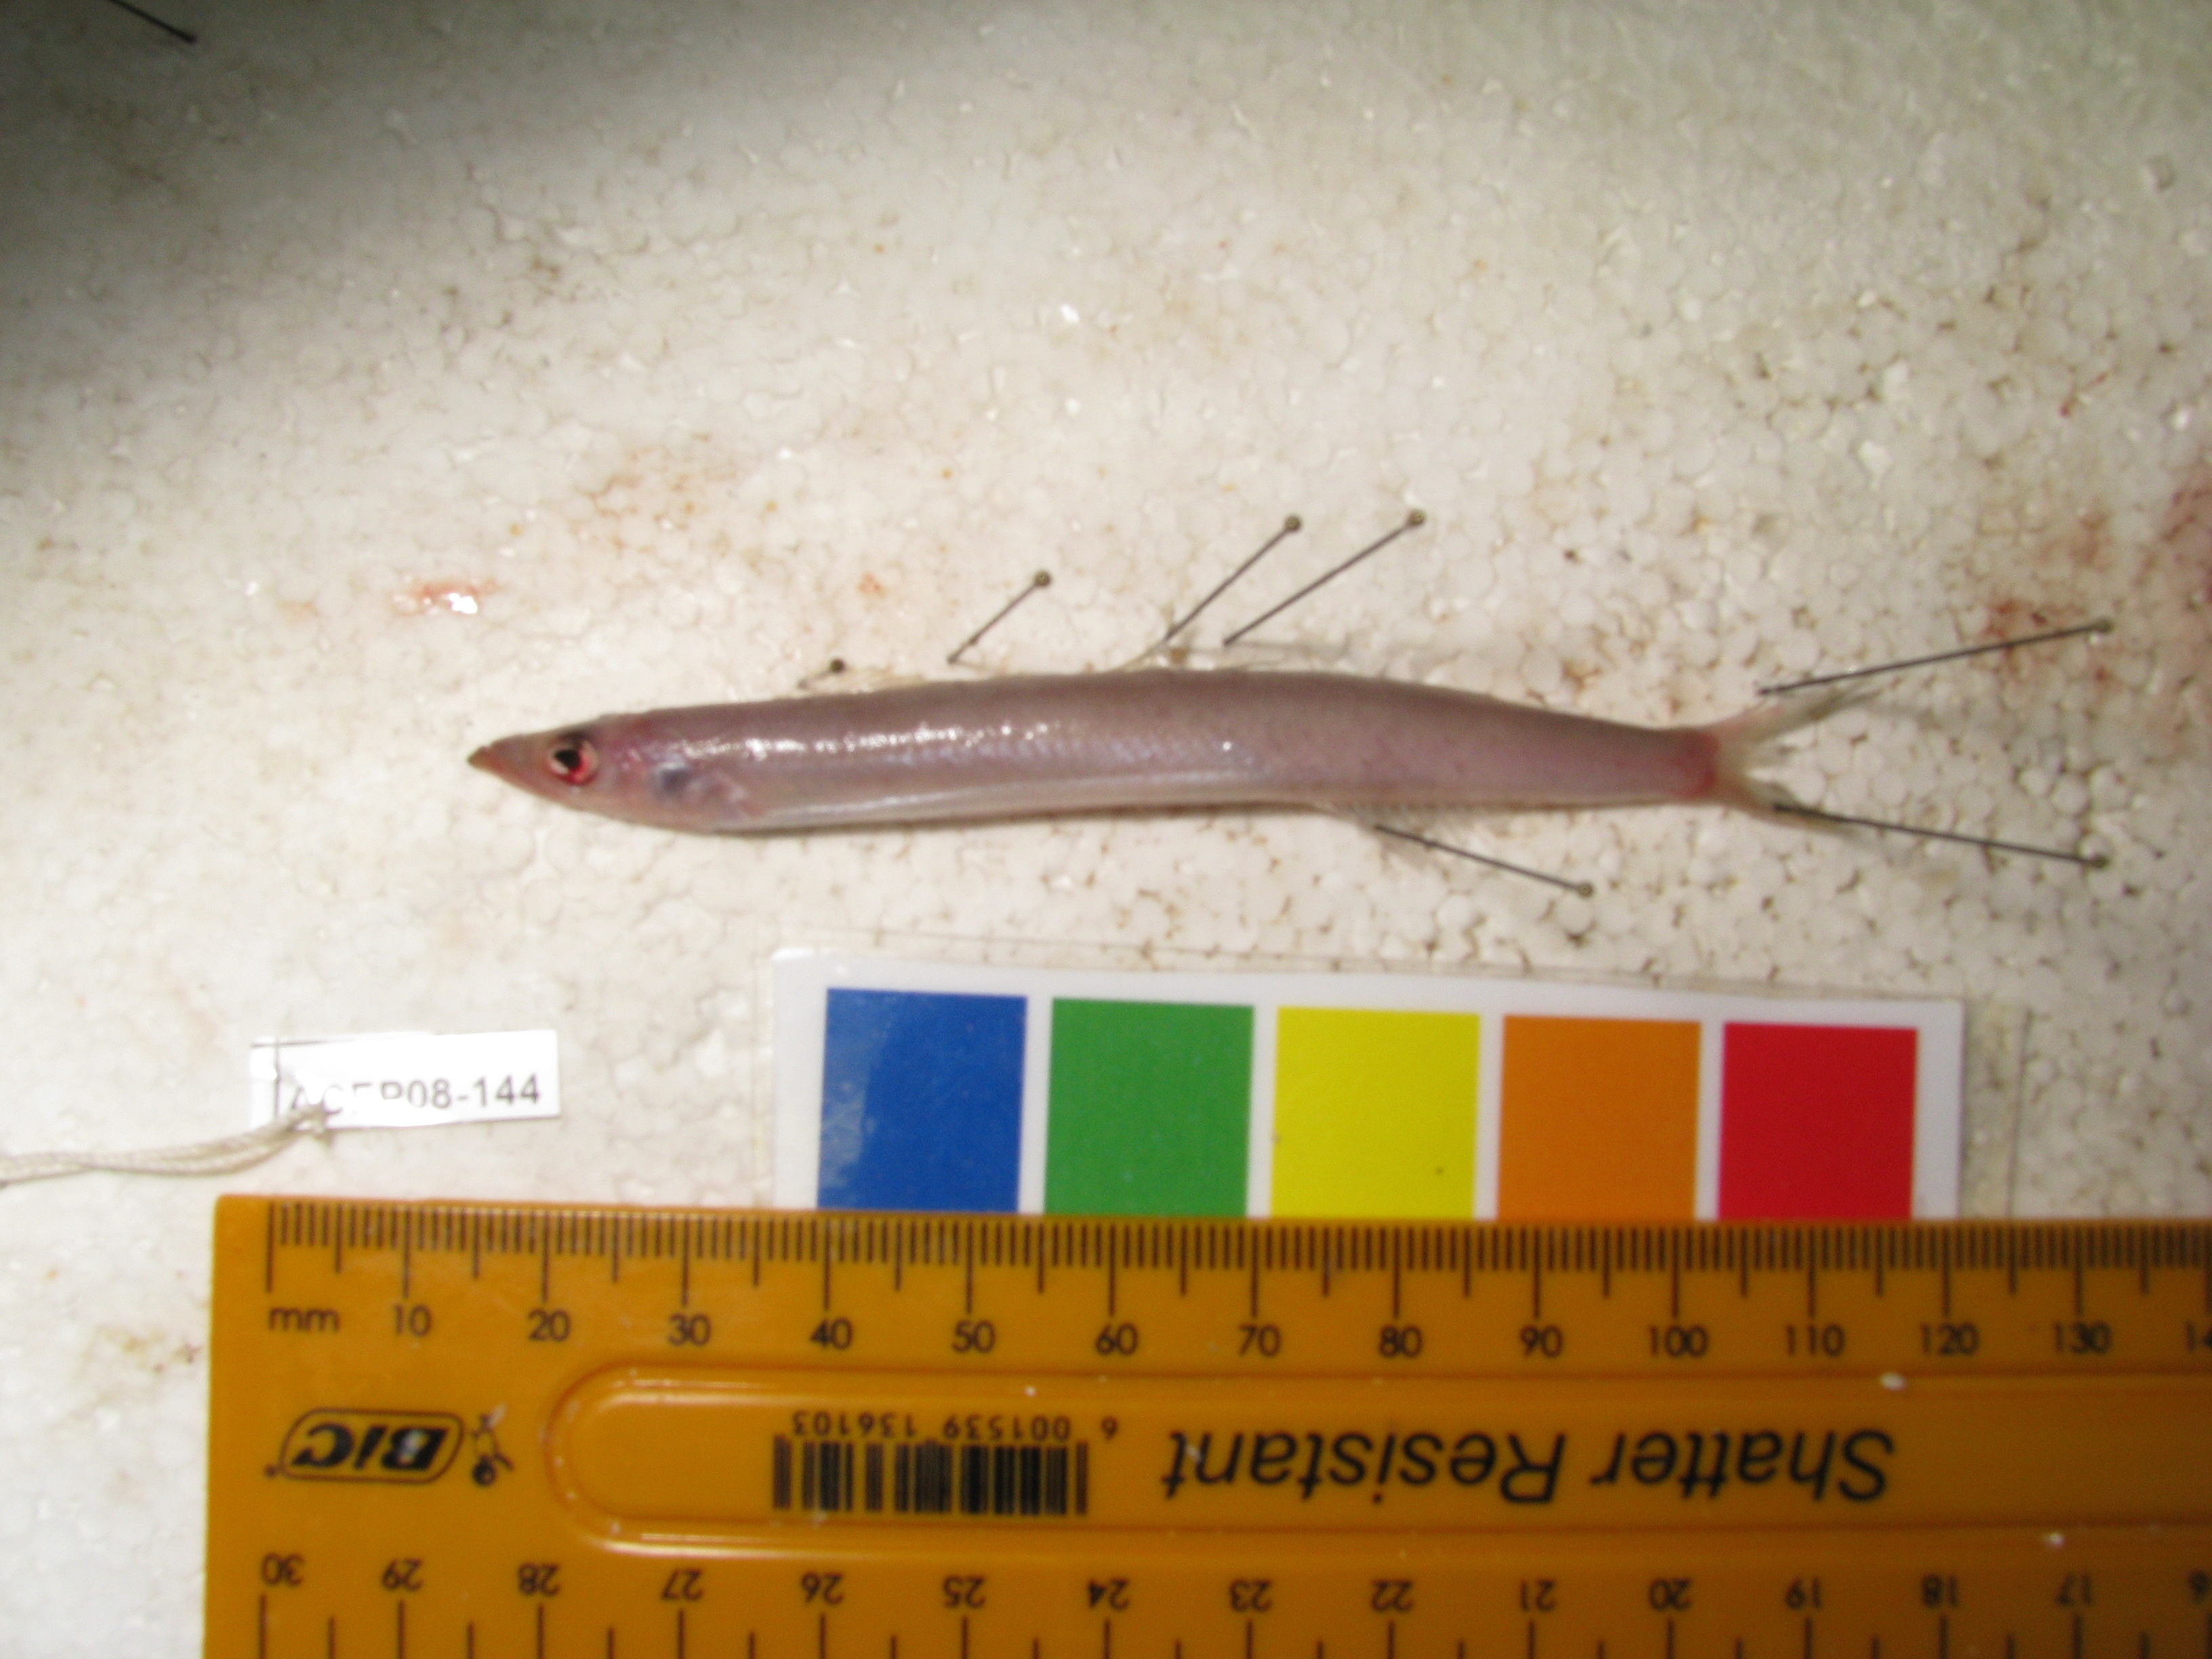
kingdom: Animalia
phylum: Chordata
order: Perciformes
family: Ammodytidae
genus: Ammodytoides
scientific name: Ammodytoides renniei
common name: Scaly sandlance
